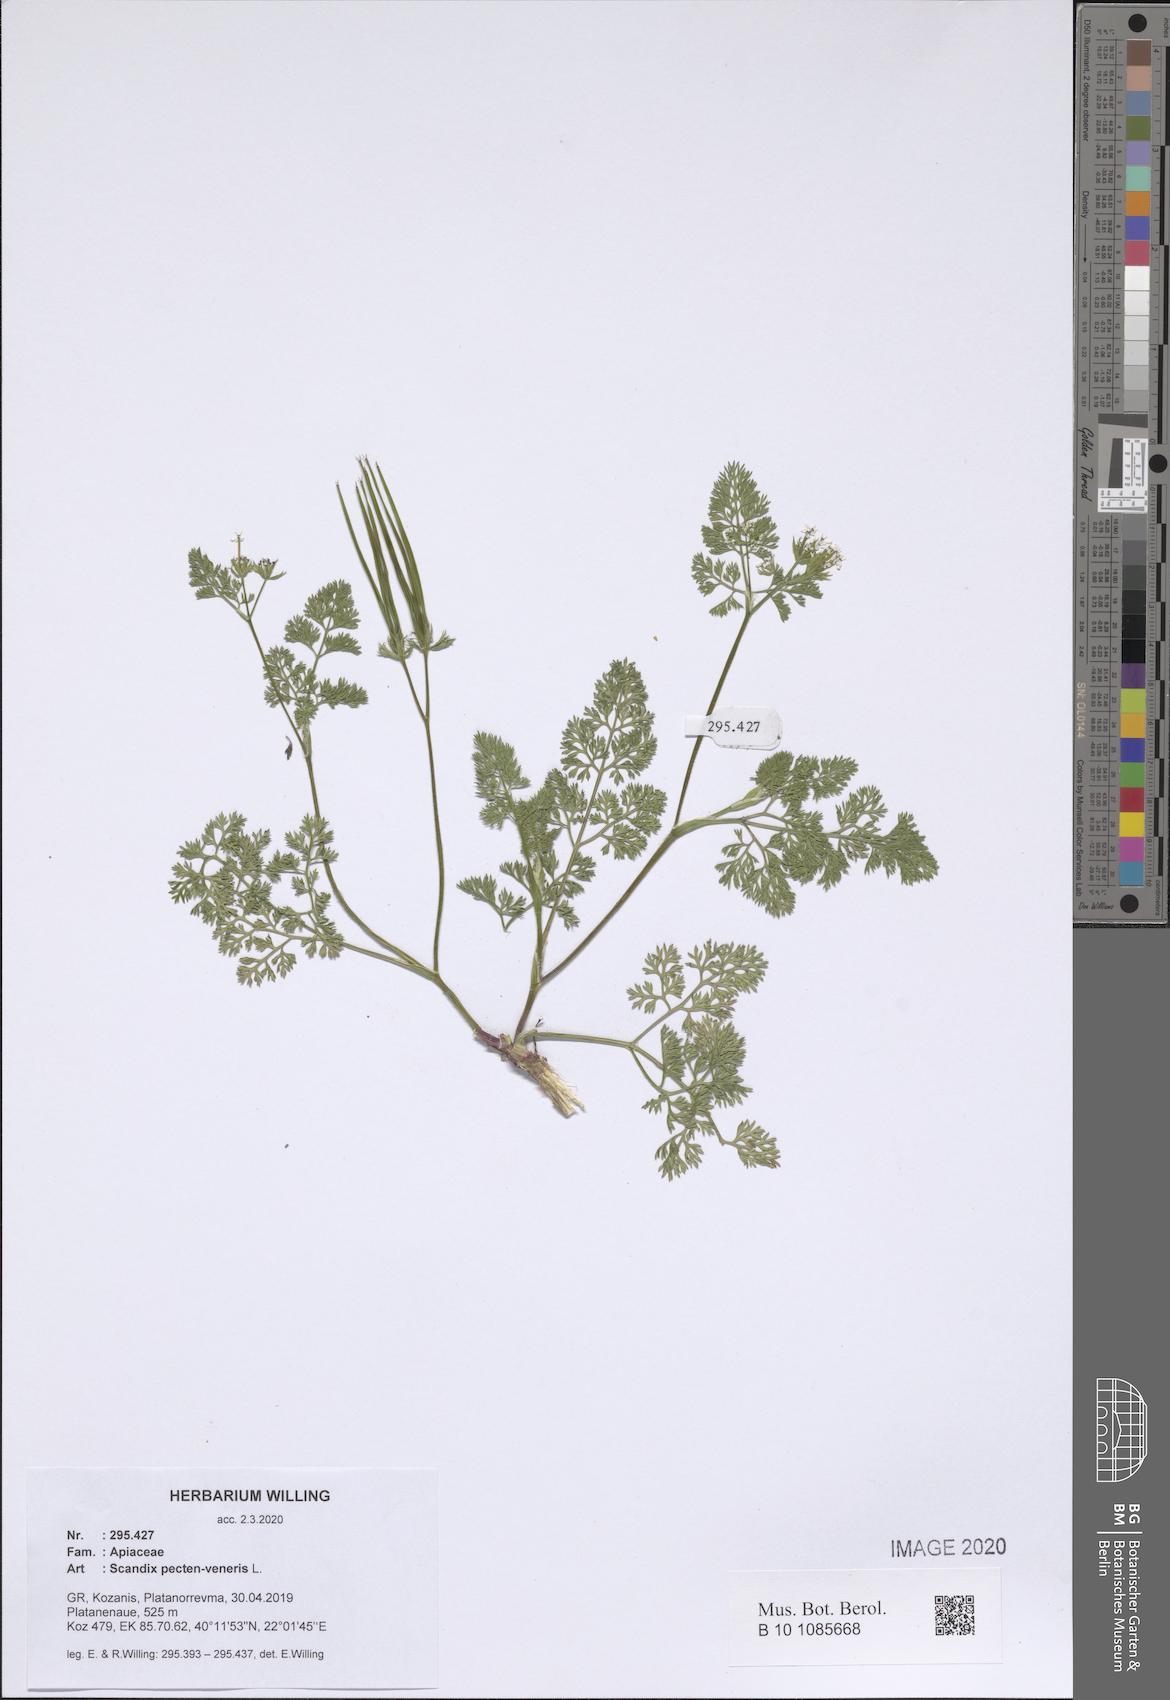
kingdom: Plantae
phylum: Tracheophyta
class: Magnoliopsida
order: Apiales
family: Apiaceae
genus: Scandix
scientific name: Scandix pecten-veneris
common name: Shepherd's-needle
